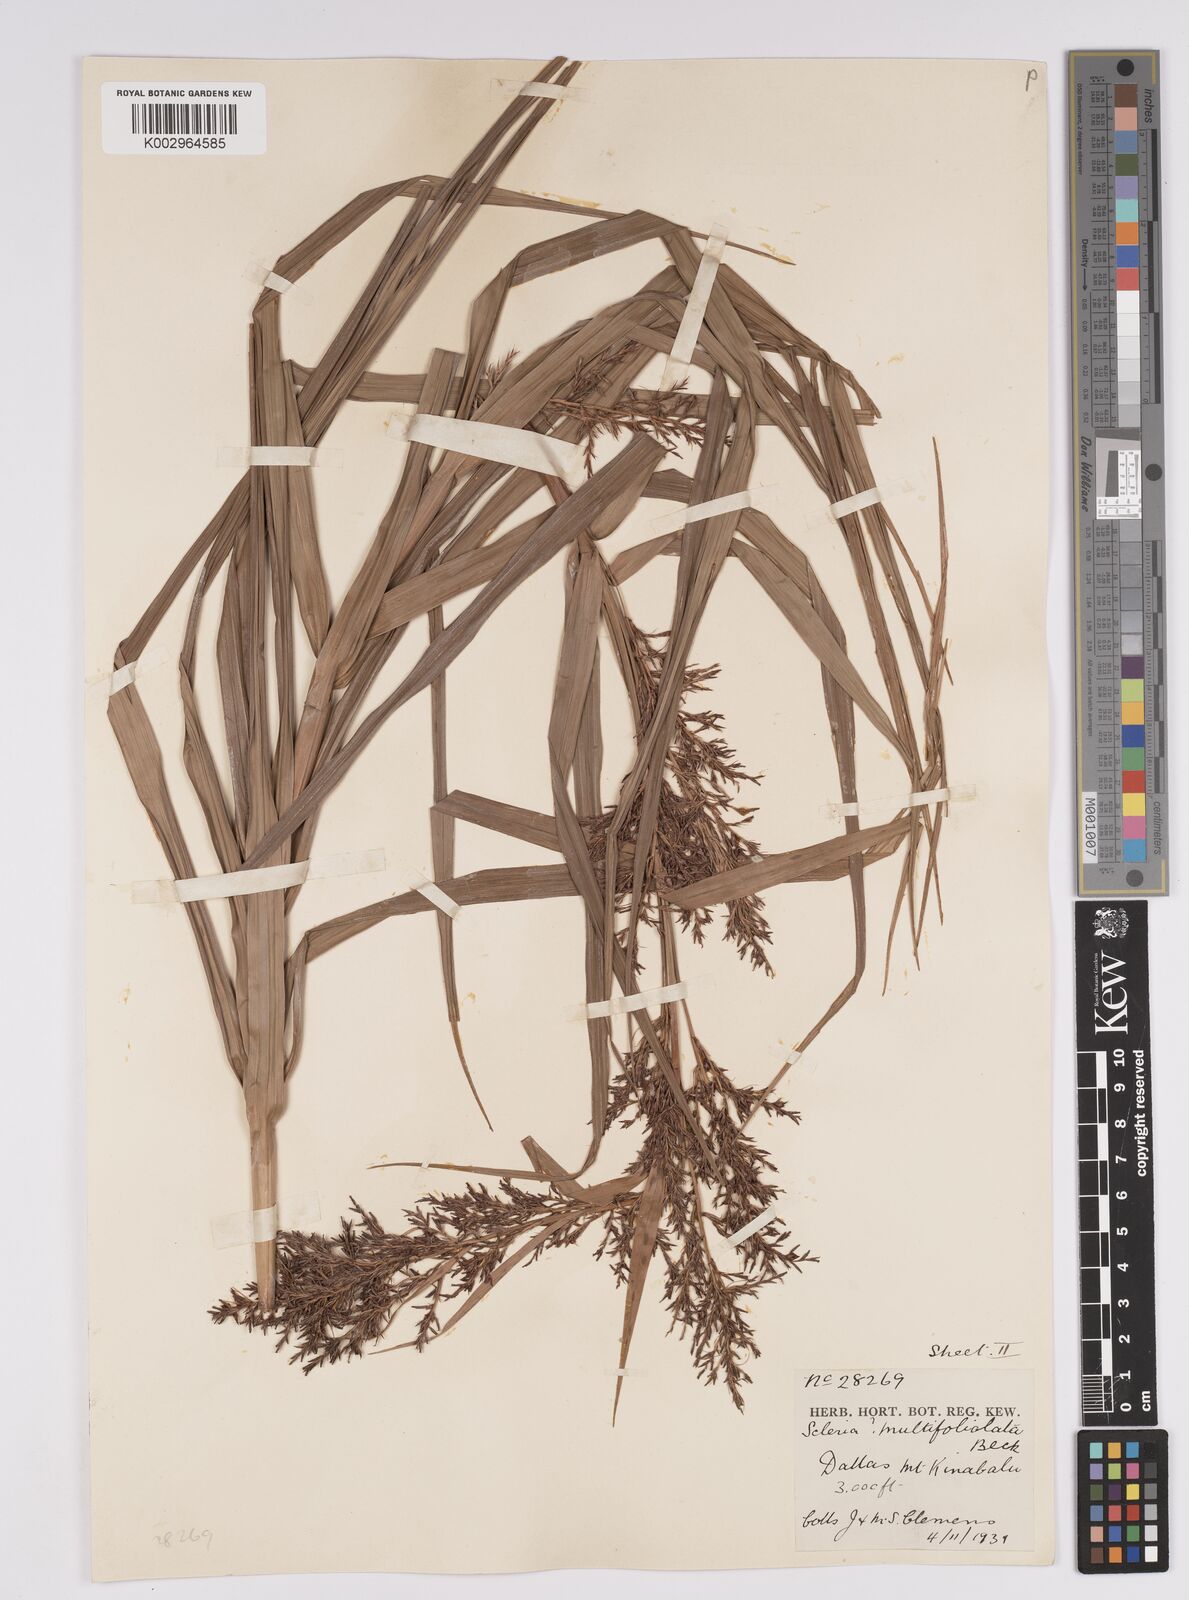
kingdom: Plantae
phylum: Tracheophyta
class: Liliopsida
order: Poales
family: Cyperaceae
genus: Scleria
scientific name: Scleria purpurascens
